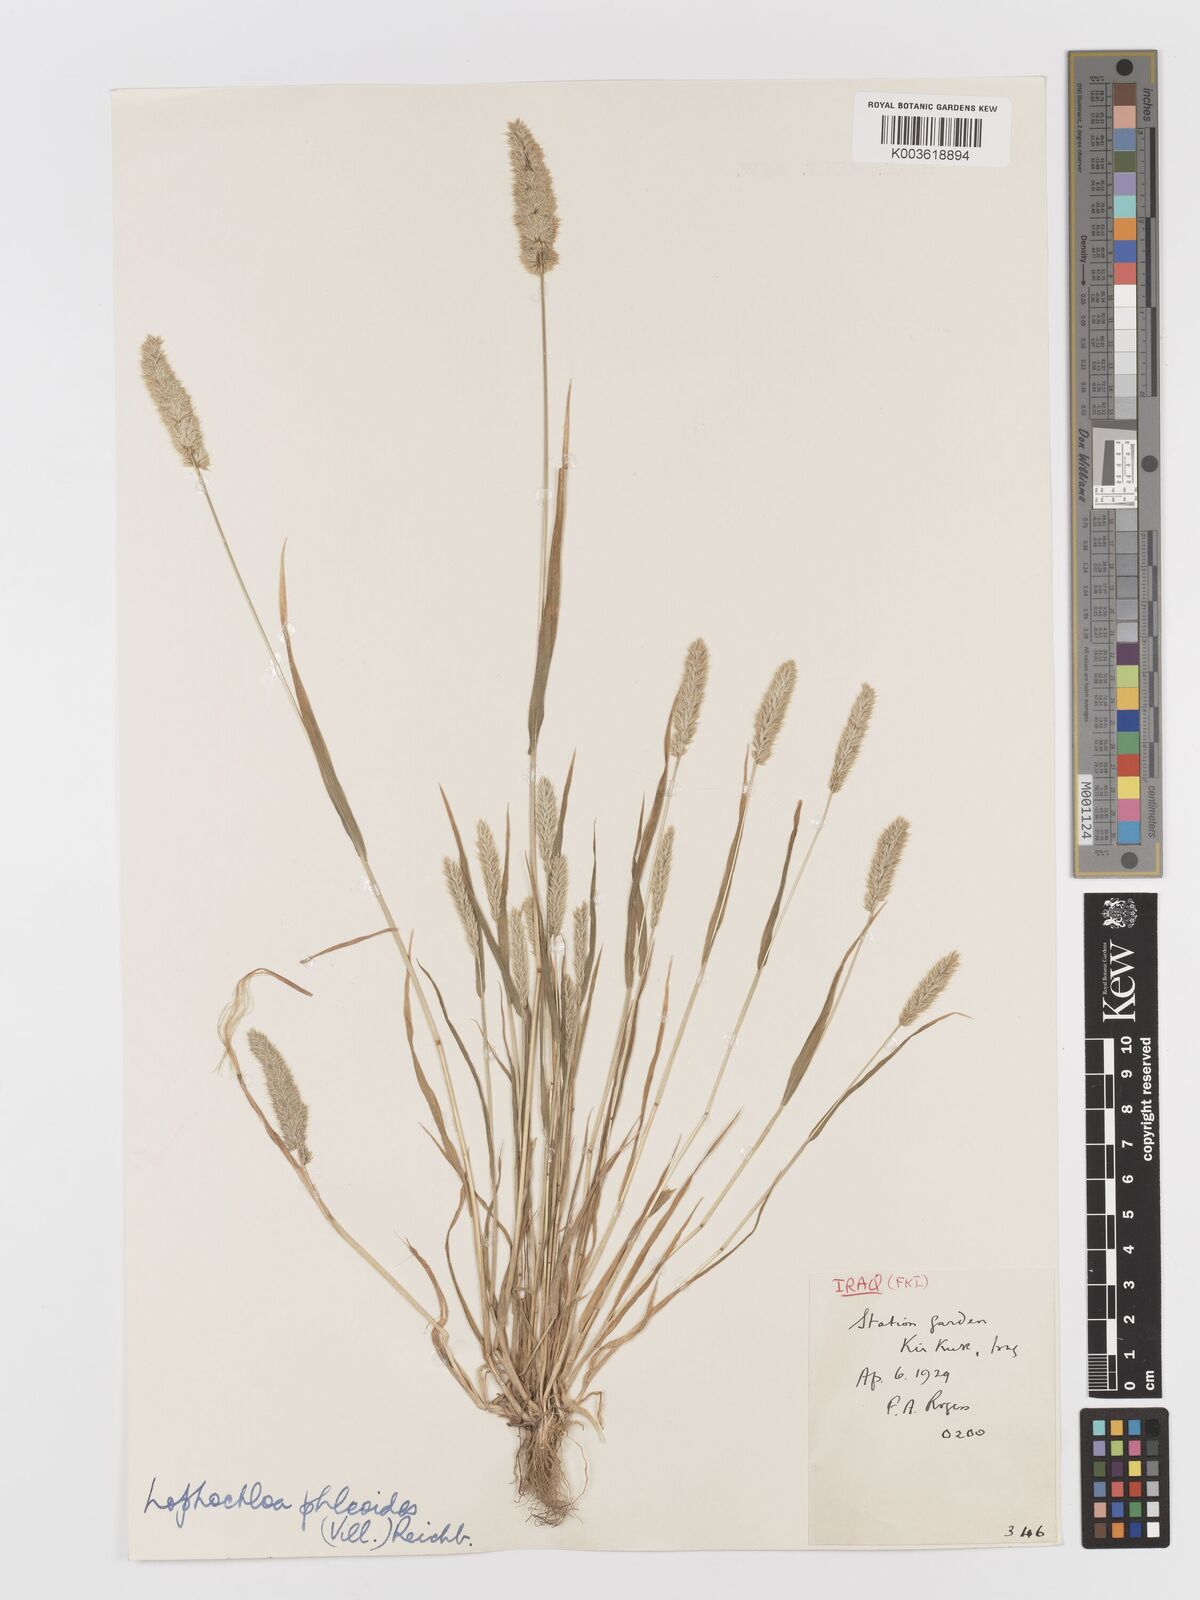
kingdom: Plantae
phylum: Tracheophyta
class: Liliopsida
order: Poales
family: Poaceae
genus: Rostraria
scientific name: Rostraria cristata
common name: Mediterranean hair-grass
